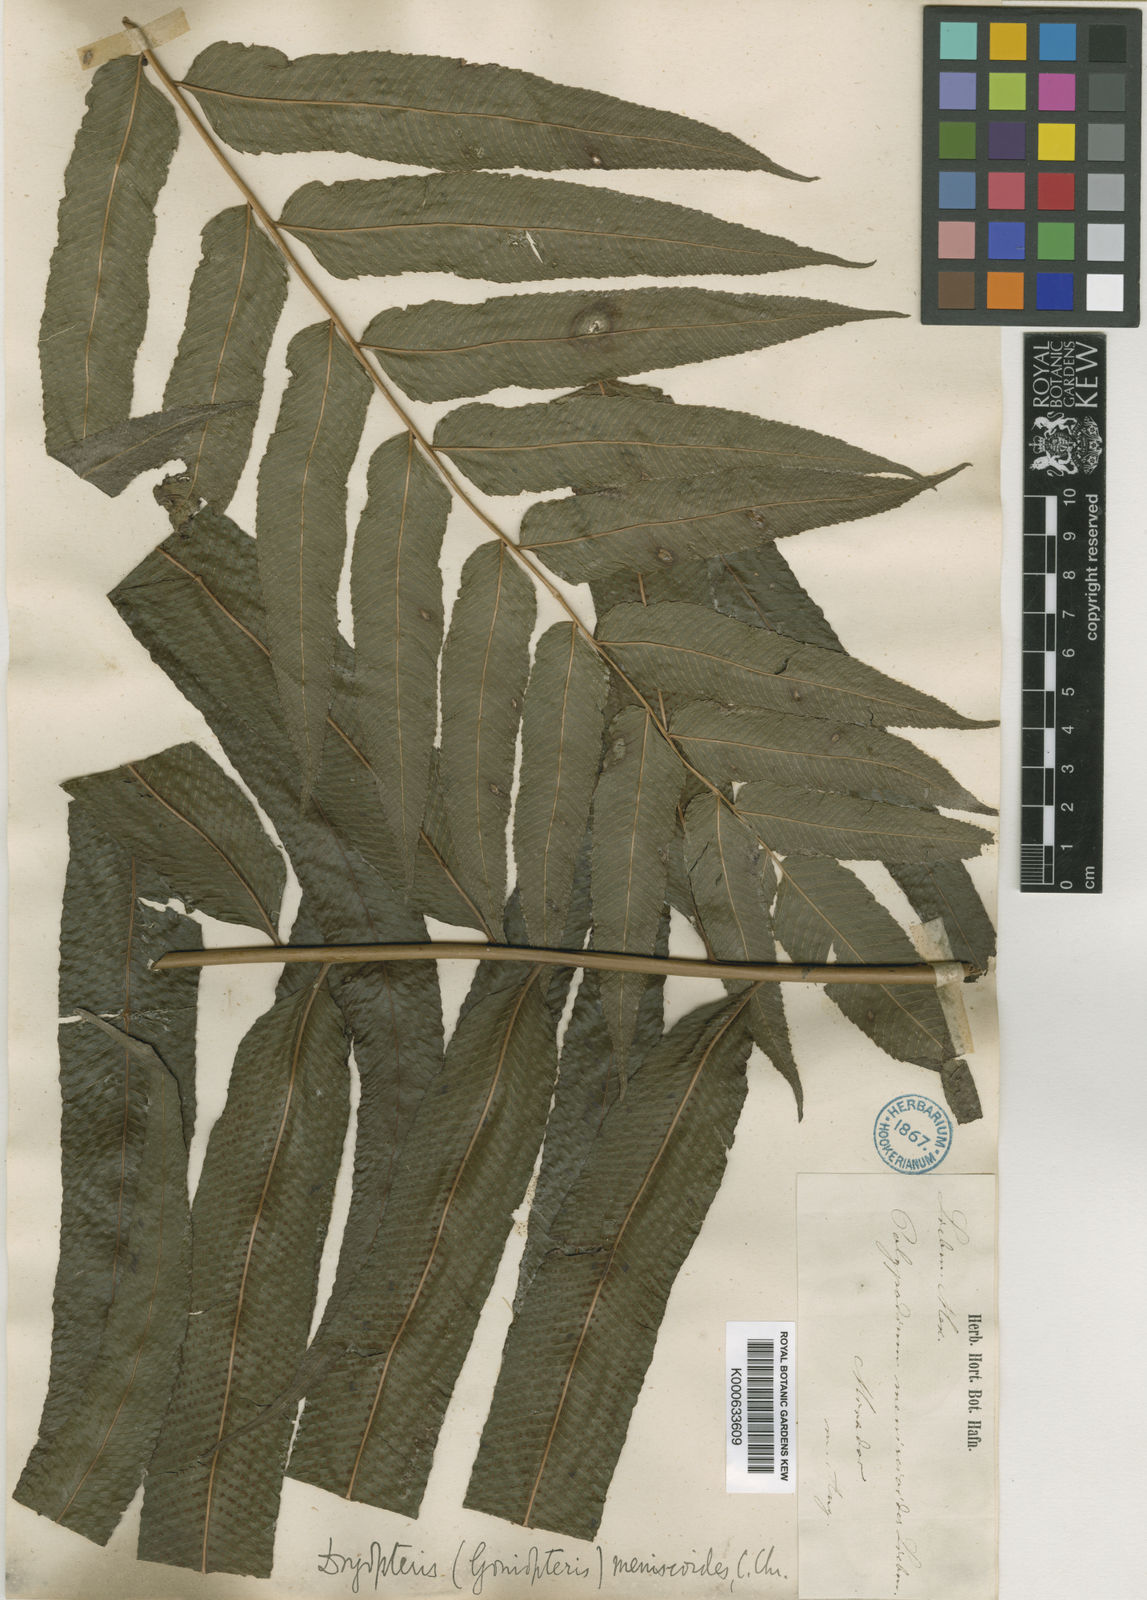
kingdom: Plantae
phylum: Tracheophyta
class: Polypodiopsida
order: Polypodiales
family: Thelypteridaceae
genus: Goniopteris
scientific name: Goniopteris
